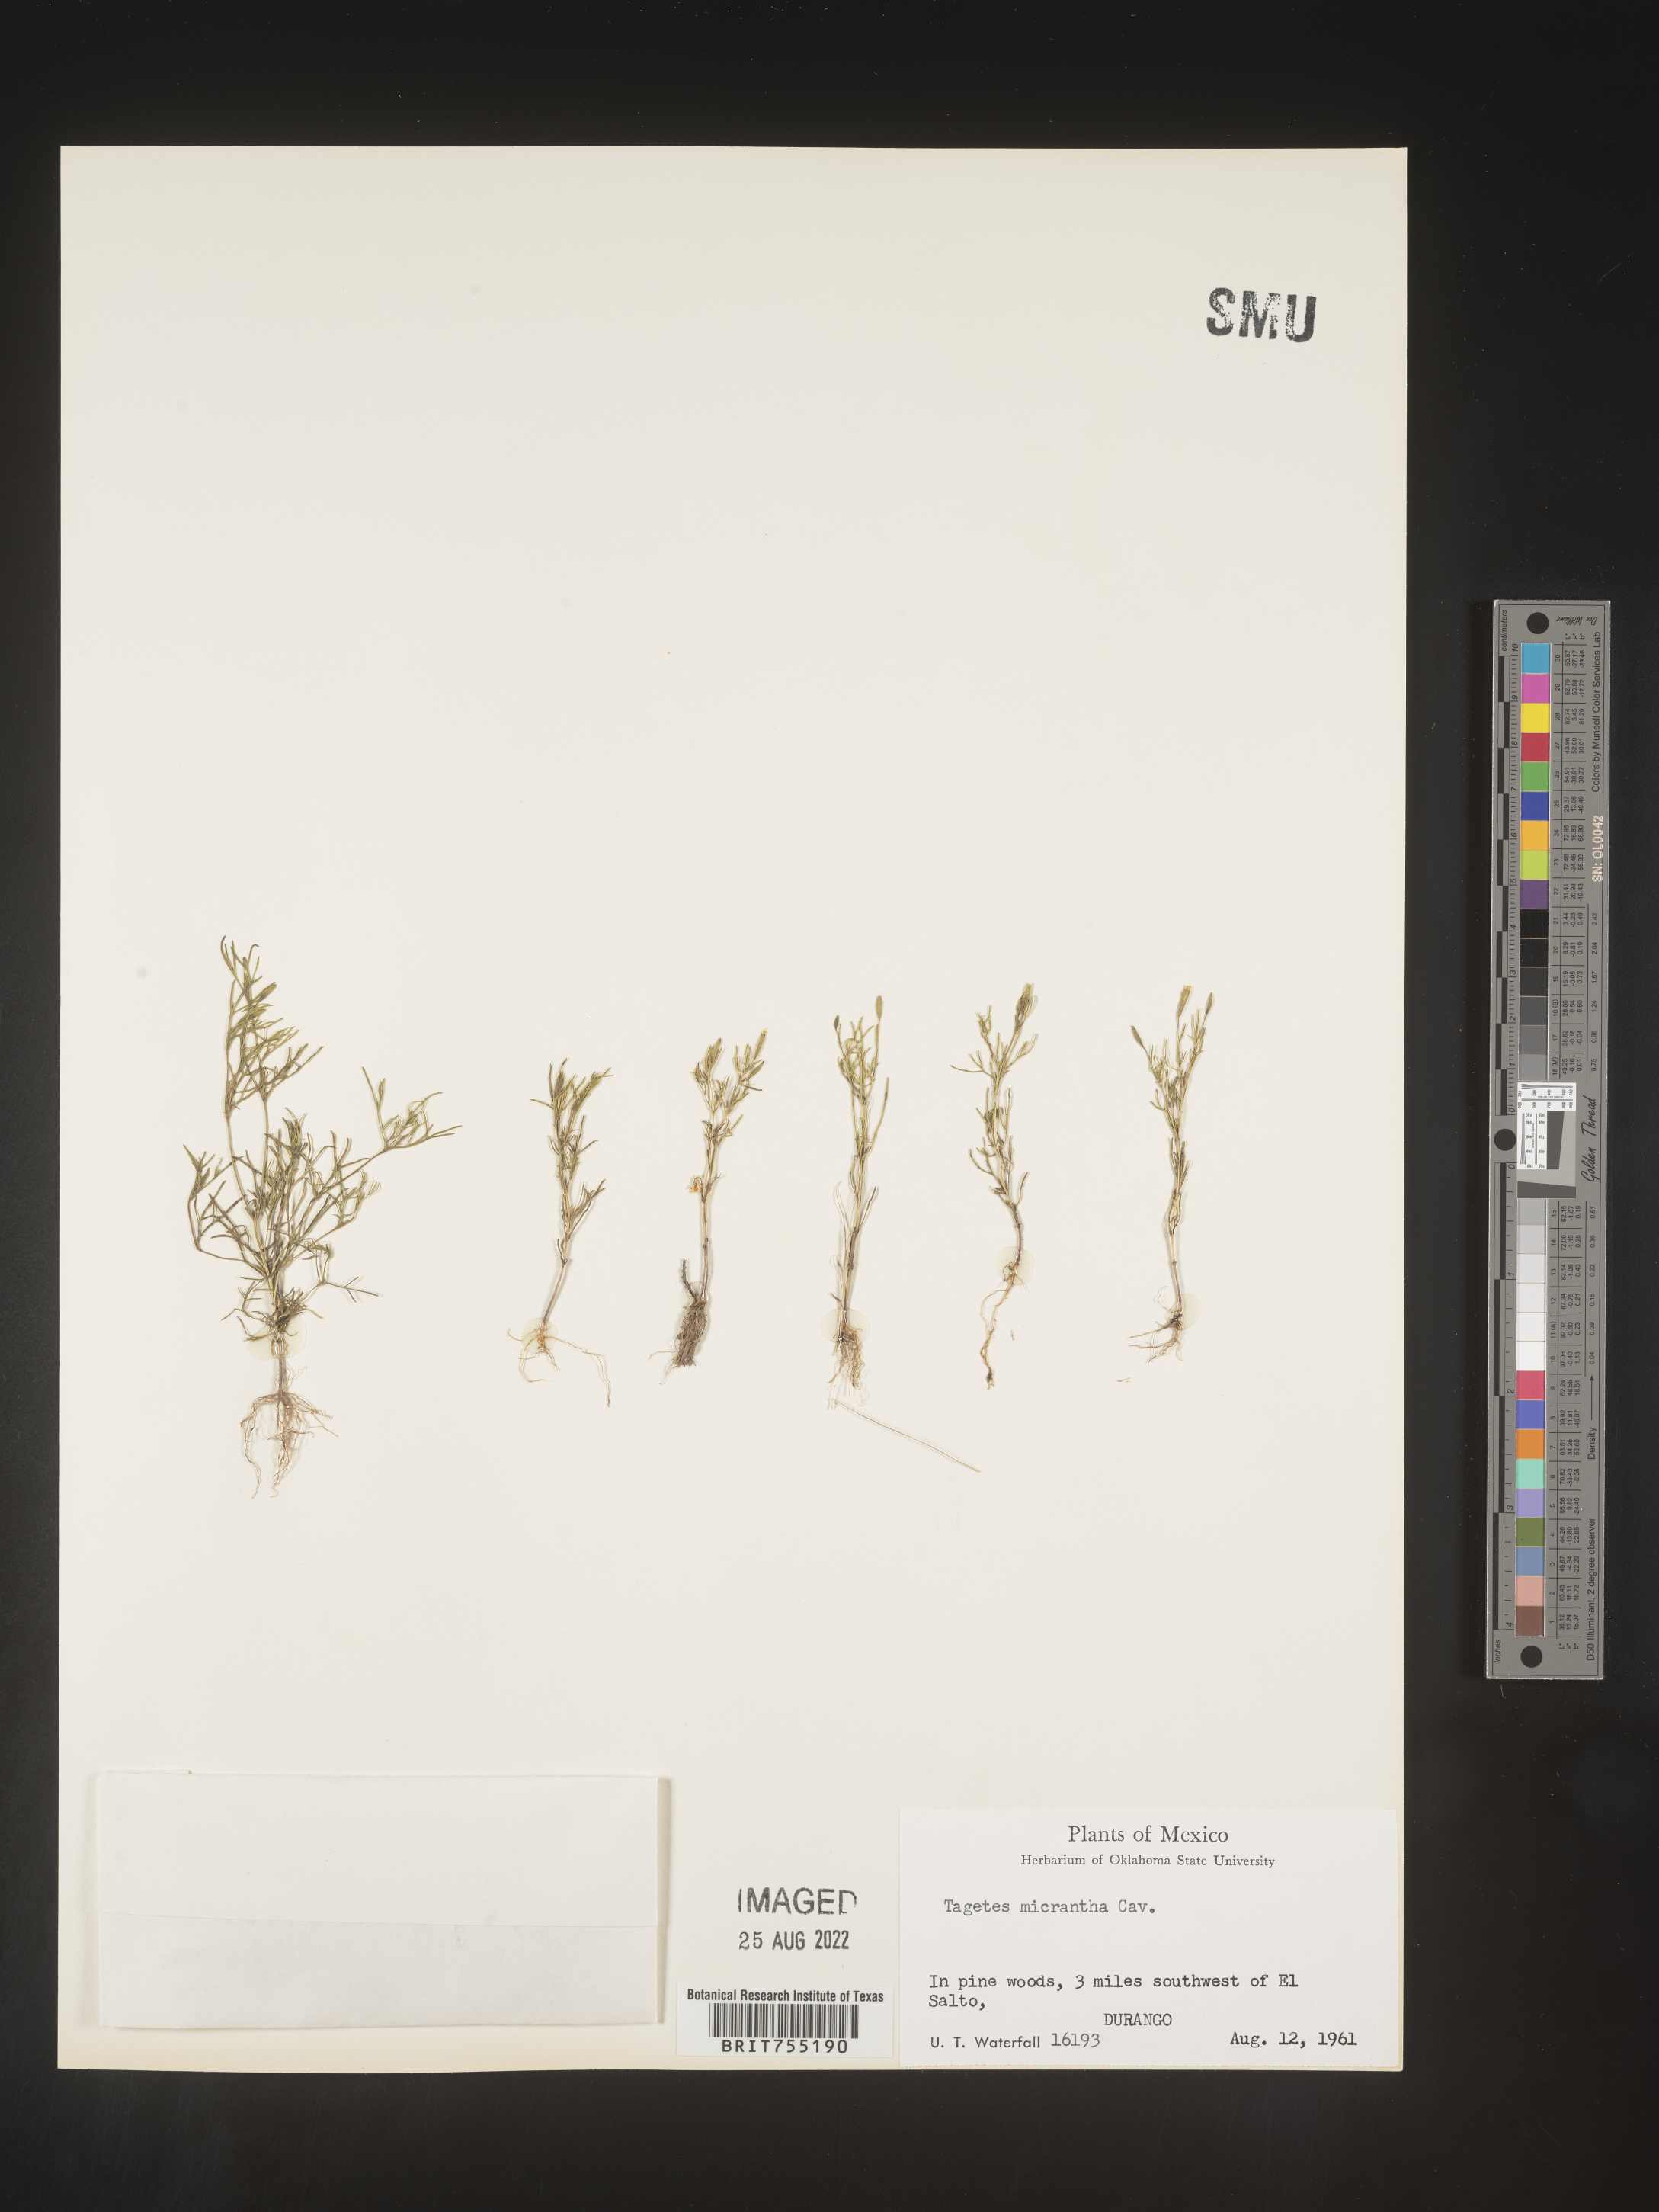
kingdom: Plantae
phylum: Tracheophyta
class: Magnoliopsida
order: Asterales
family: Asteraceae
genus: Tagetes
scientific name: Tagetes
